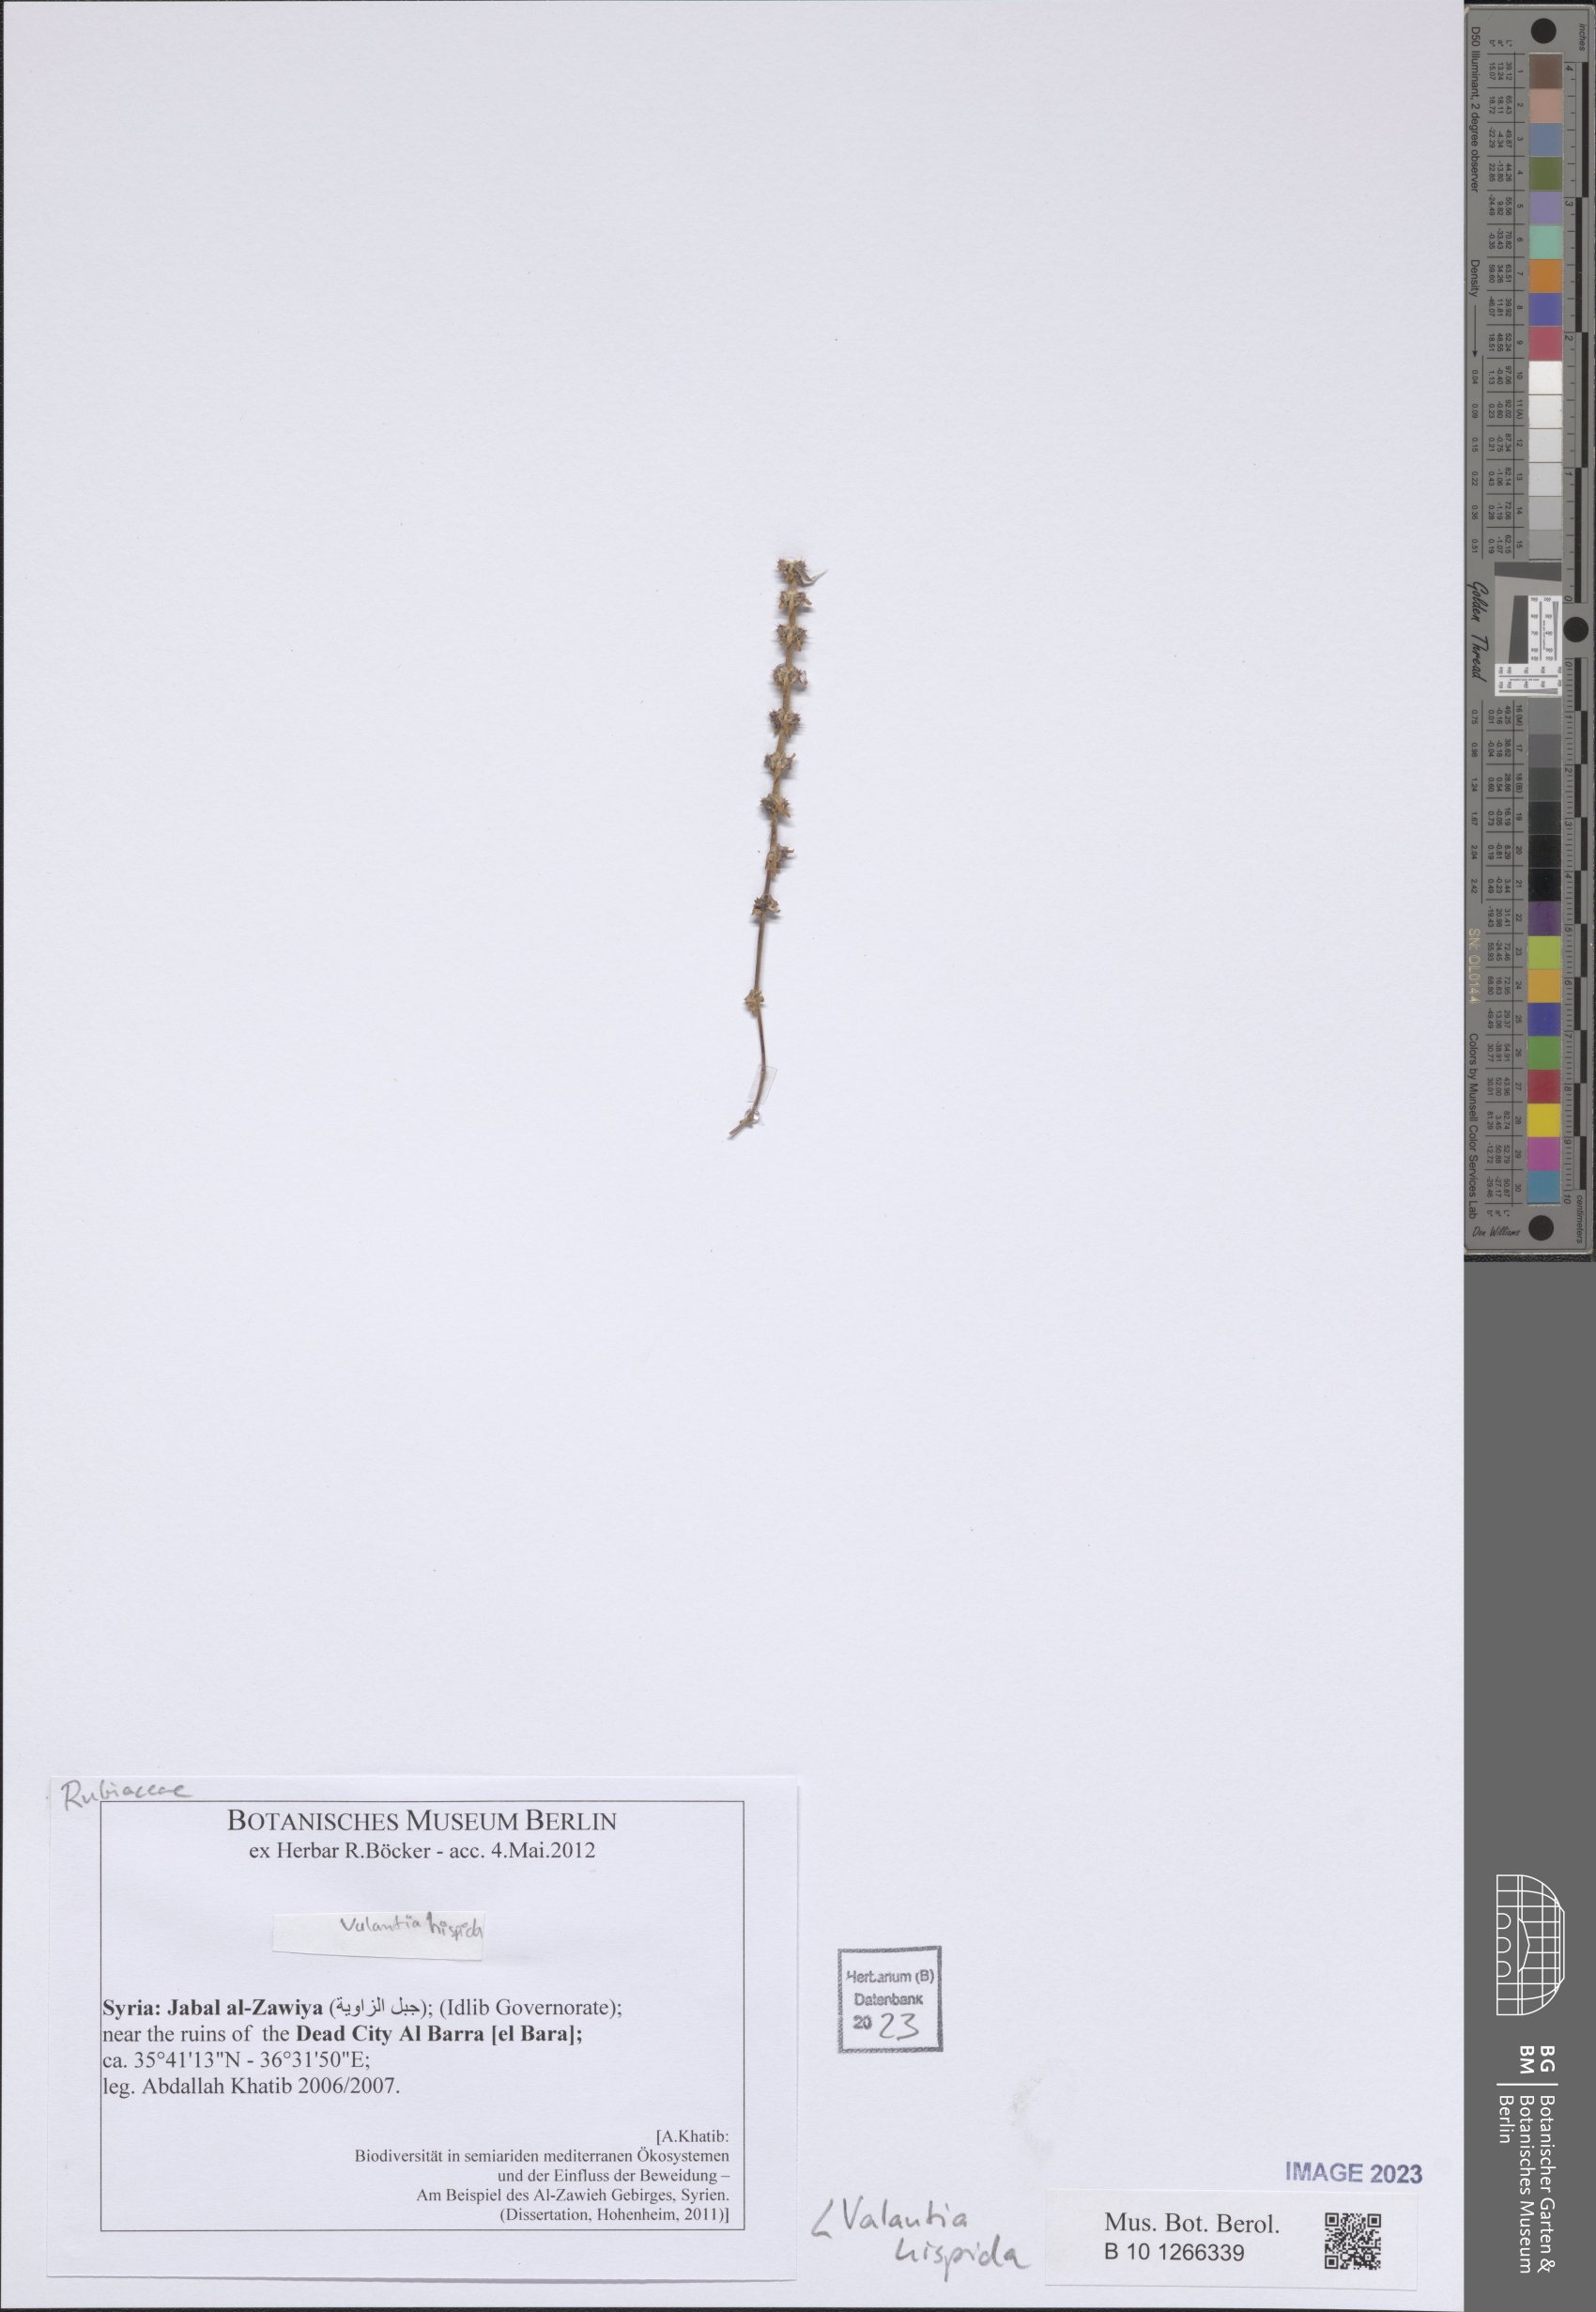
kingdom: Plantae
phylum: Tracheophyta
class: Magnoliopsida
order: Gentianales
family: Rubiaceae
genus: Valantia
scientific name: Valantia hispida
